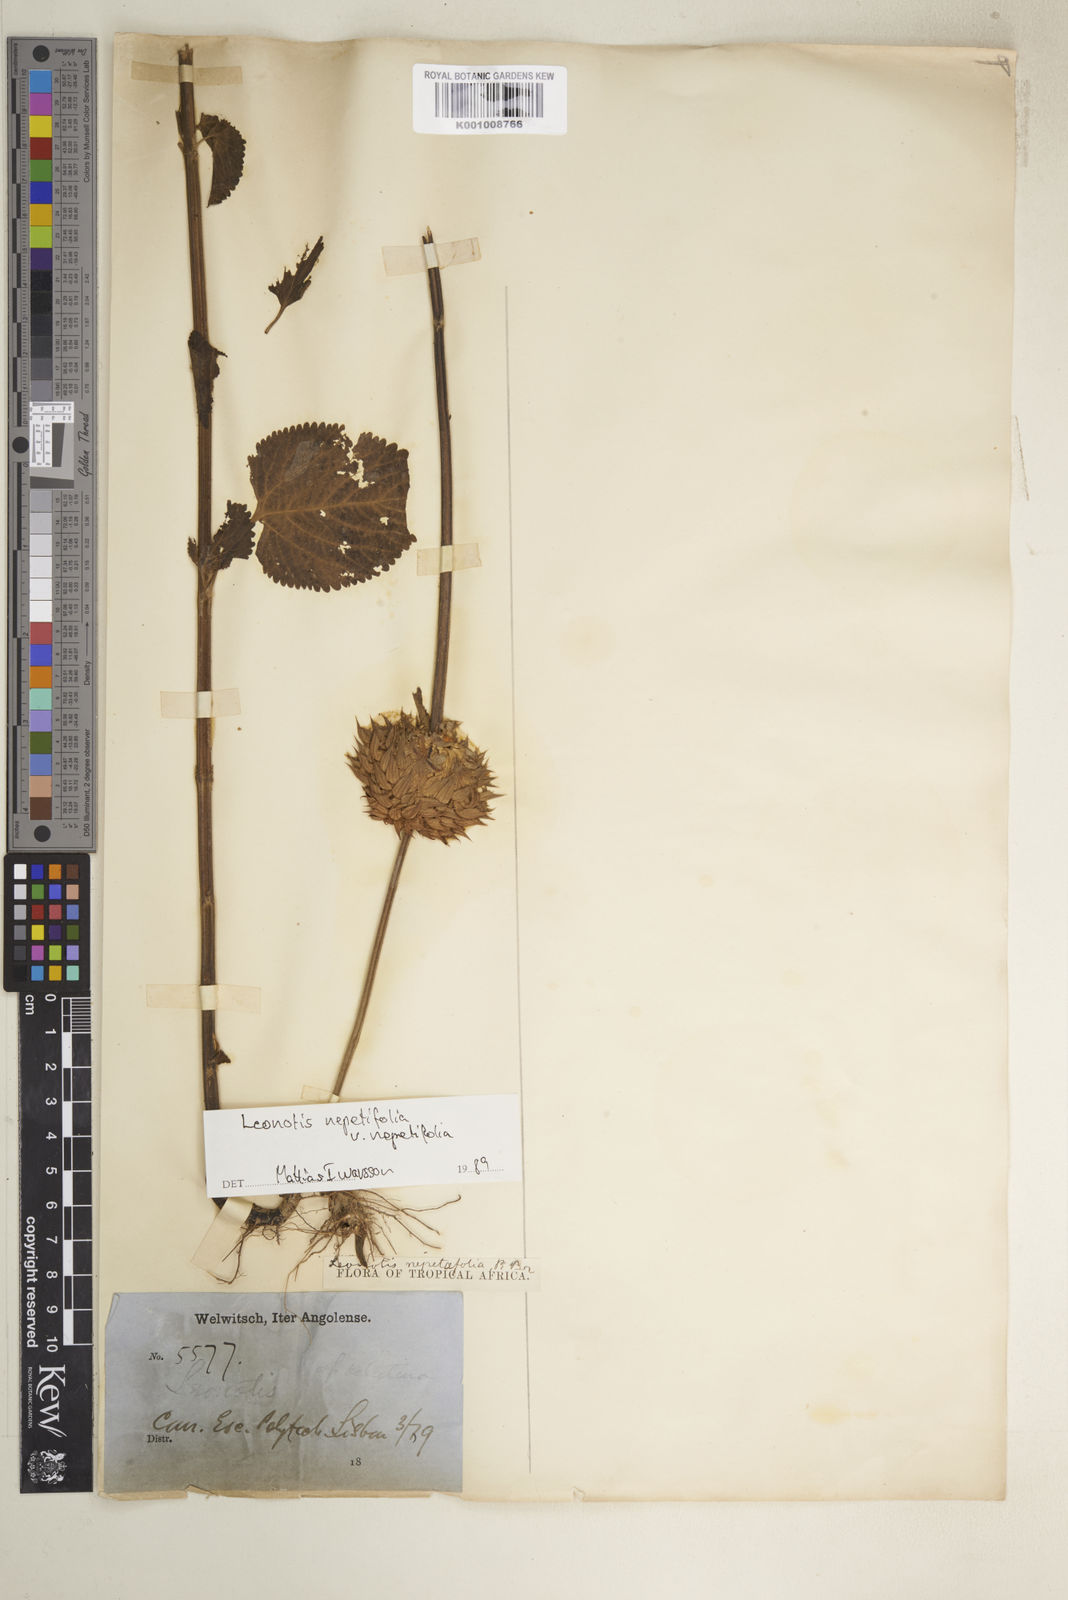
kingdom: Plantae
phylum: Tracheophyta
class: Magnoliopsida
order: Lamiales
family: Lamiaceae
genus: Leonotis
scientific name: Leonotis nepetifolia
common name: Christmas candlestick
